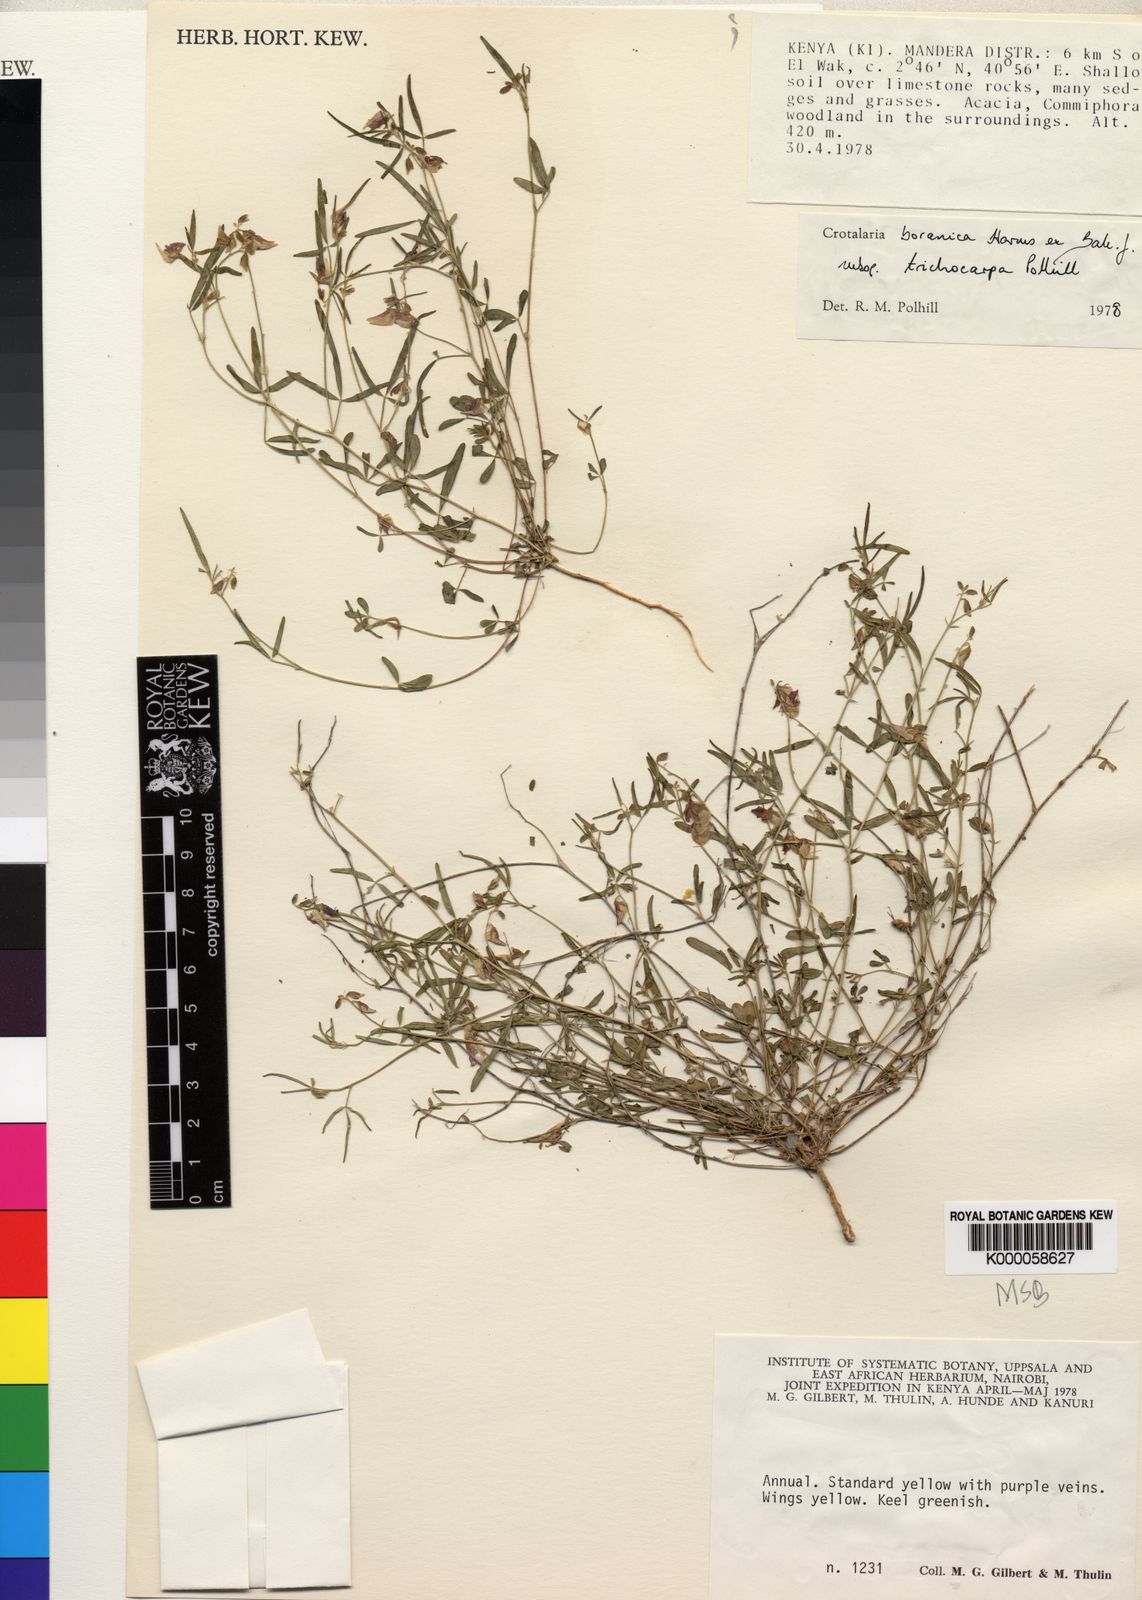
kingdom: Plantae
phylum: Tracheophyta
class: Magnoliopsida
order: Fabales
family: Fabaceae
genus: Crotalaria
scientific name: Crotalaria boranica
